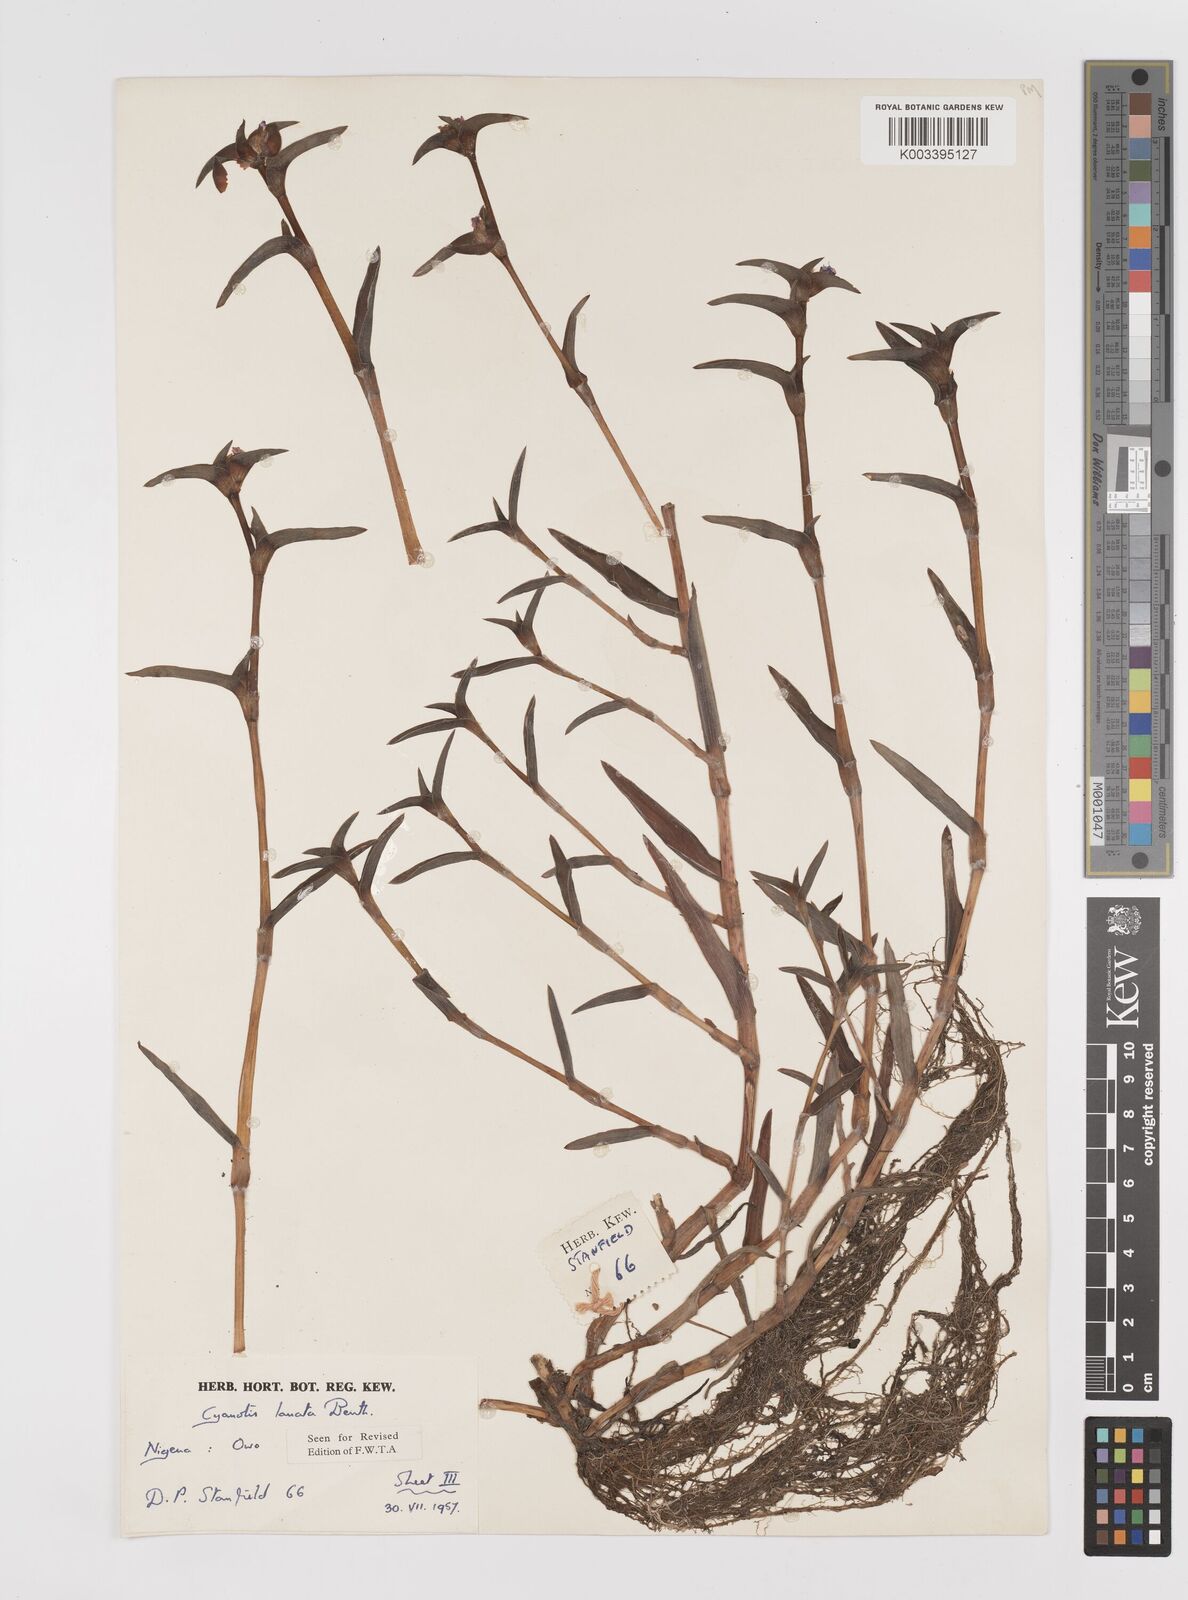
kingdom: Plantae
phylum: Tracheophyta
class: Liliopsida
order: Commelinales
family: Commelinaceae
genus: Cyanotis
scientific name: Cyanotis lanata
